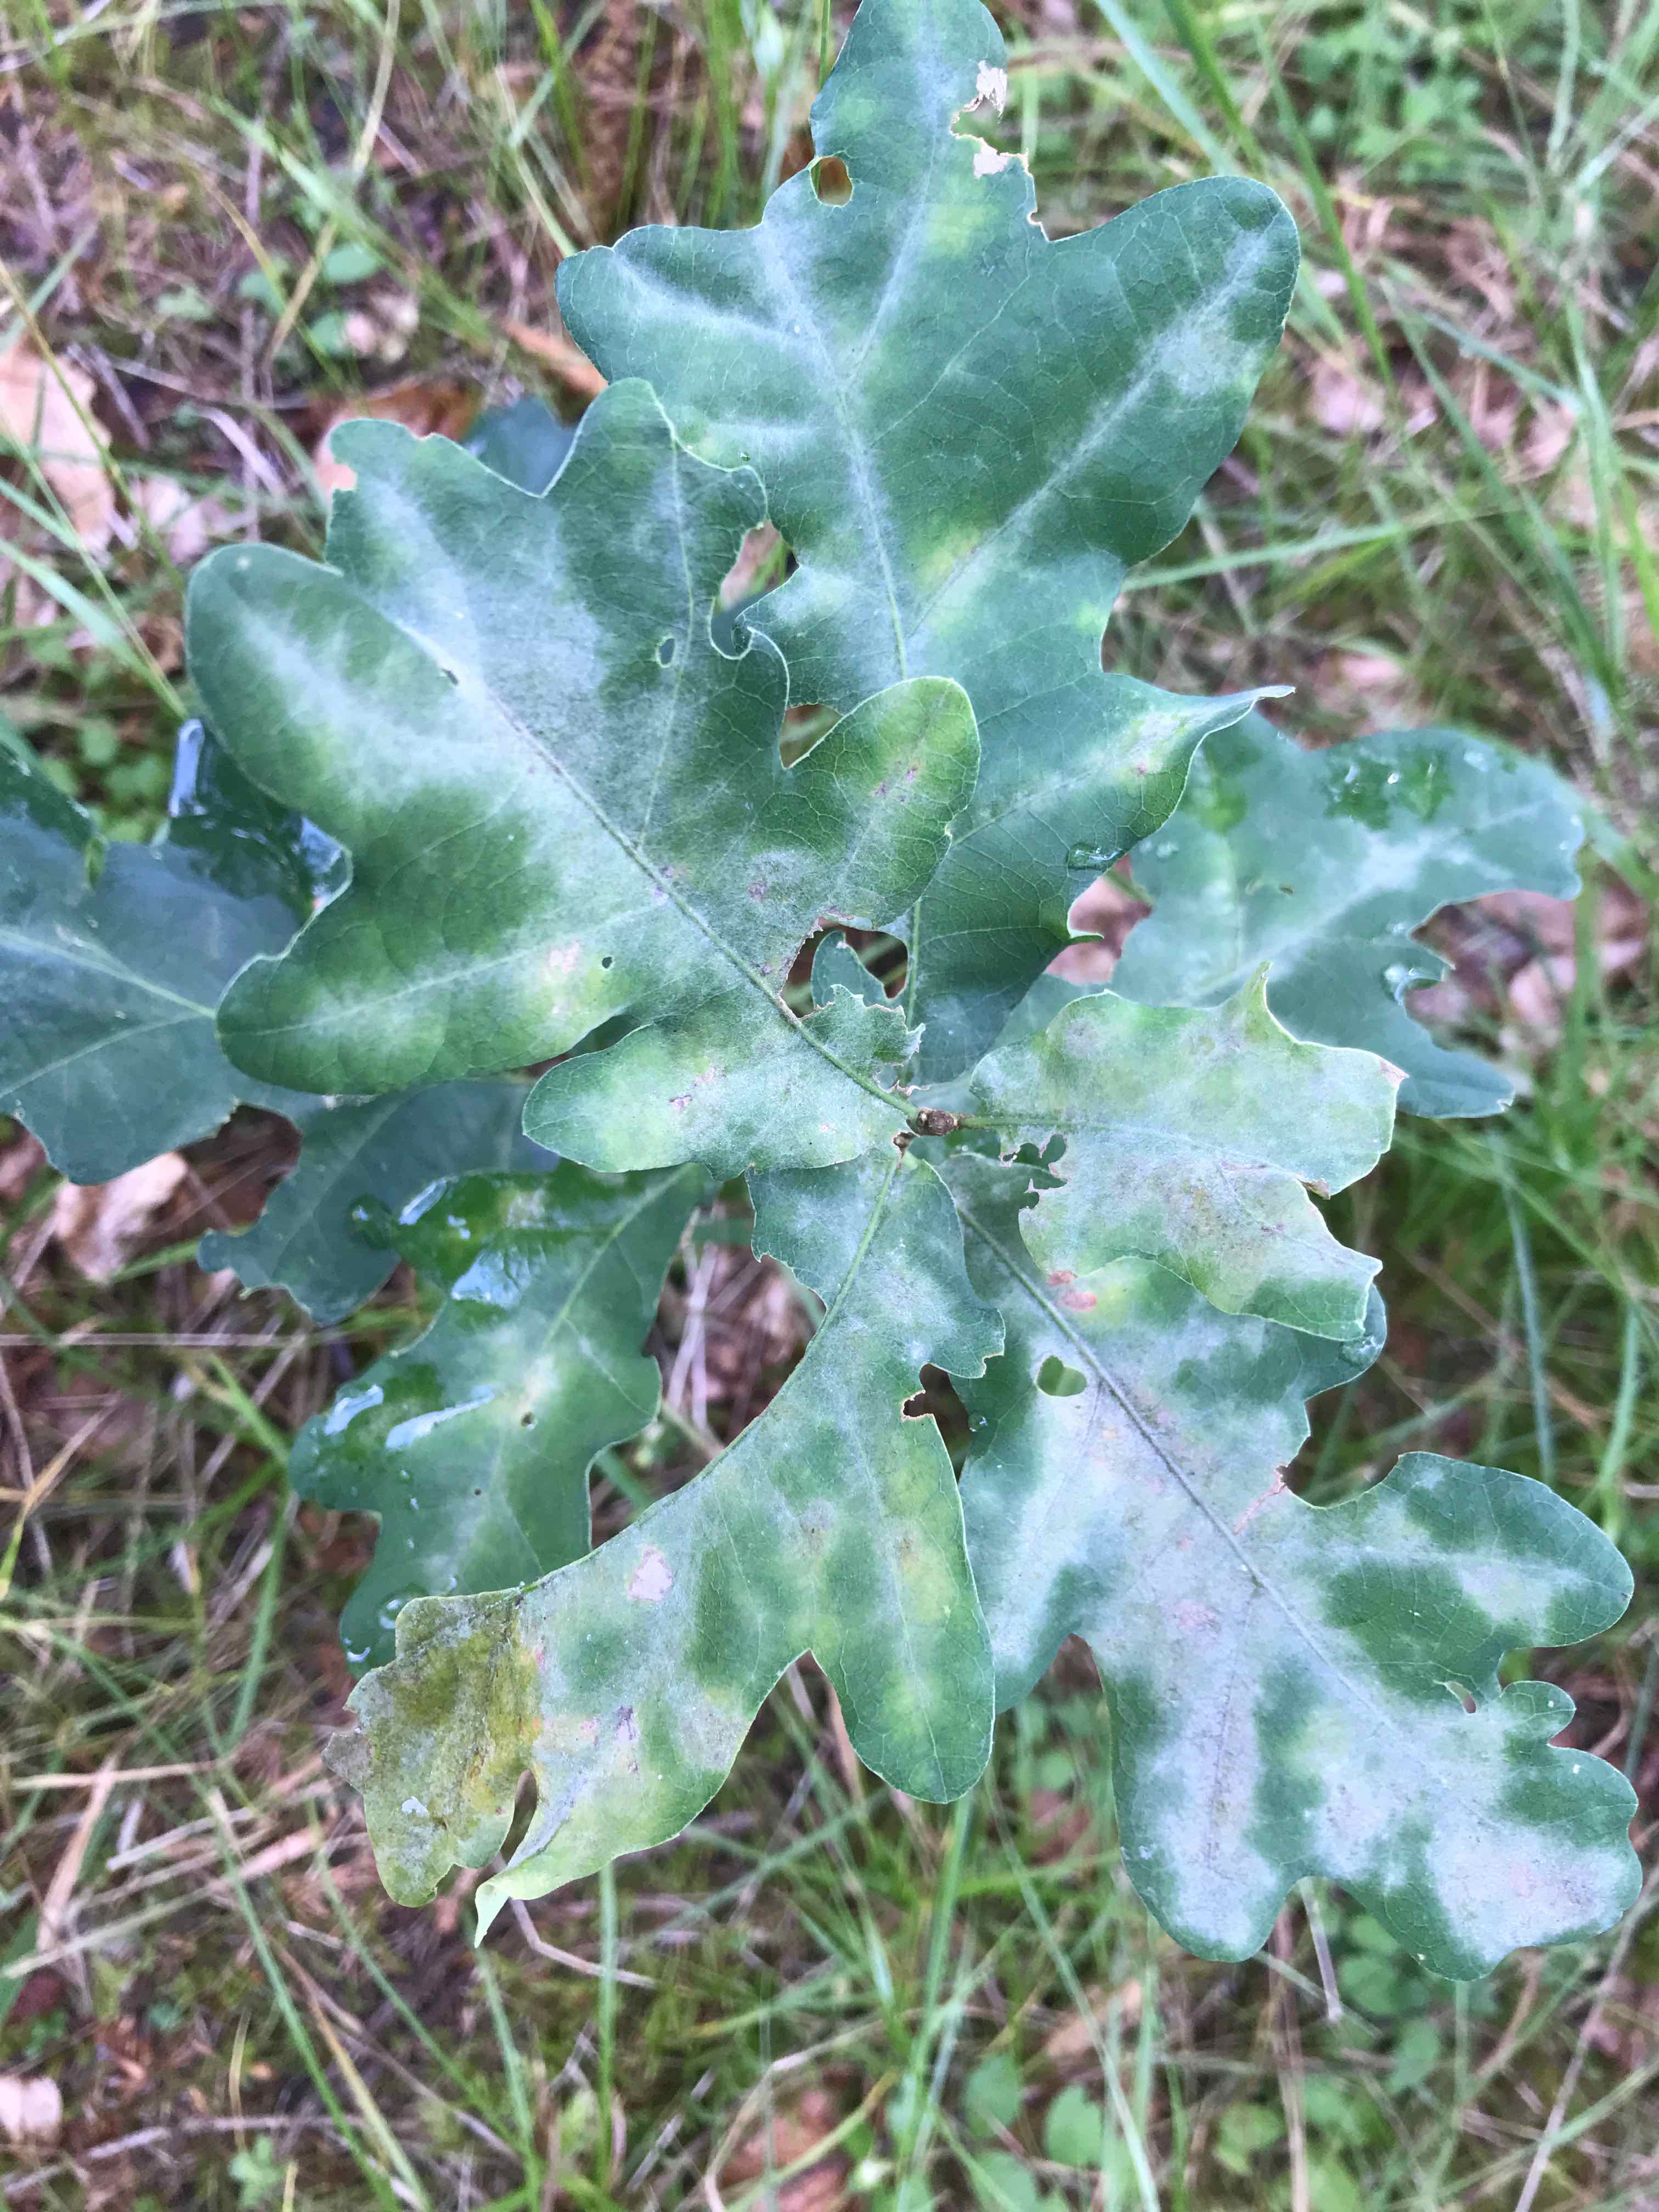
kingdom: Fungi
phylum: Ascomycota
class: Leotiomycetes
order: Helotiales
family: Erysiphaceae
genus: Erysiphe
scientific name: Erysiphe alphitoides
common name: ege-meldug
